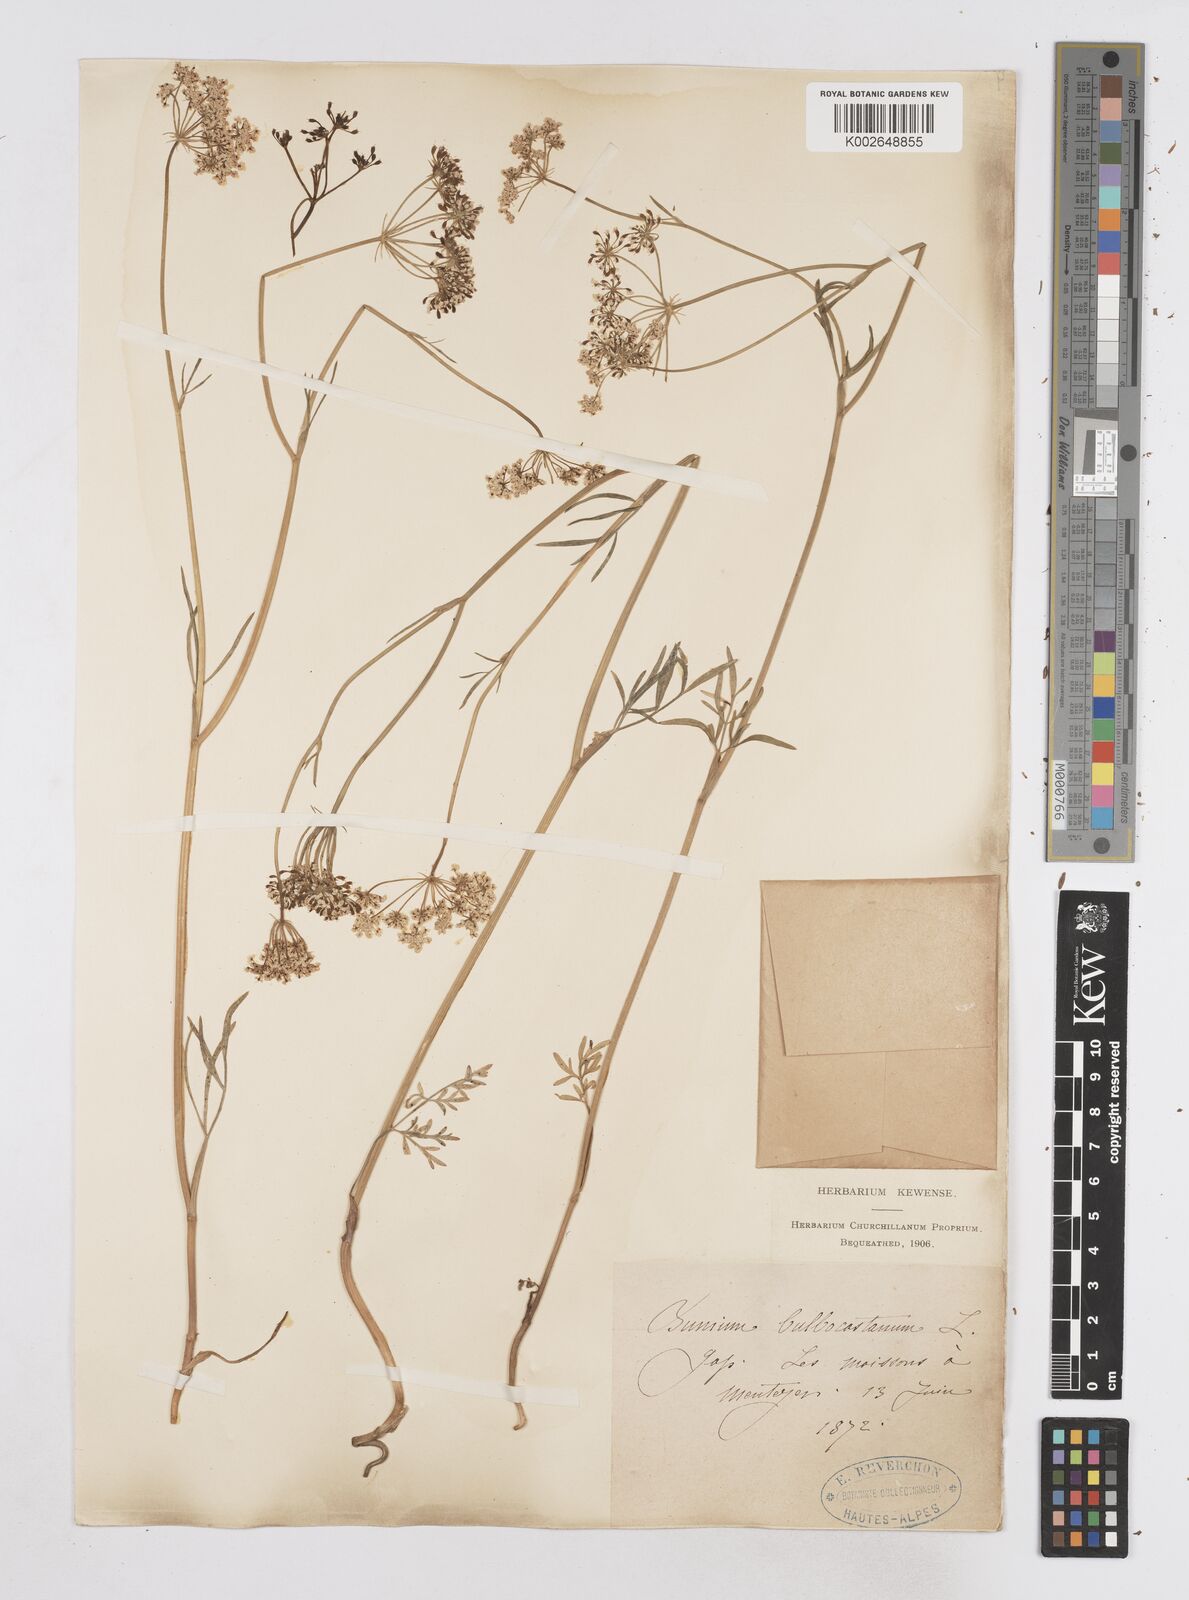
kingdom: Plantae
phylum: Tracheophyta
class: Magnoliopsida
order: Apiales
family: Apiaceae
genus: Bunium
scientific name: Bunium bulbocastanum
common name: Great pignut
